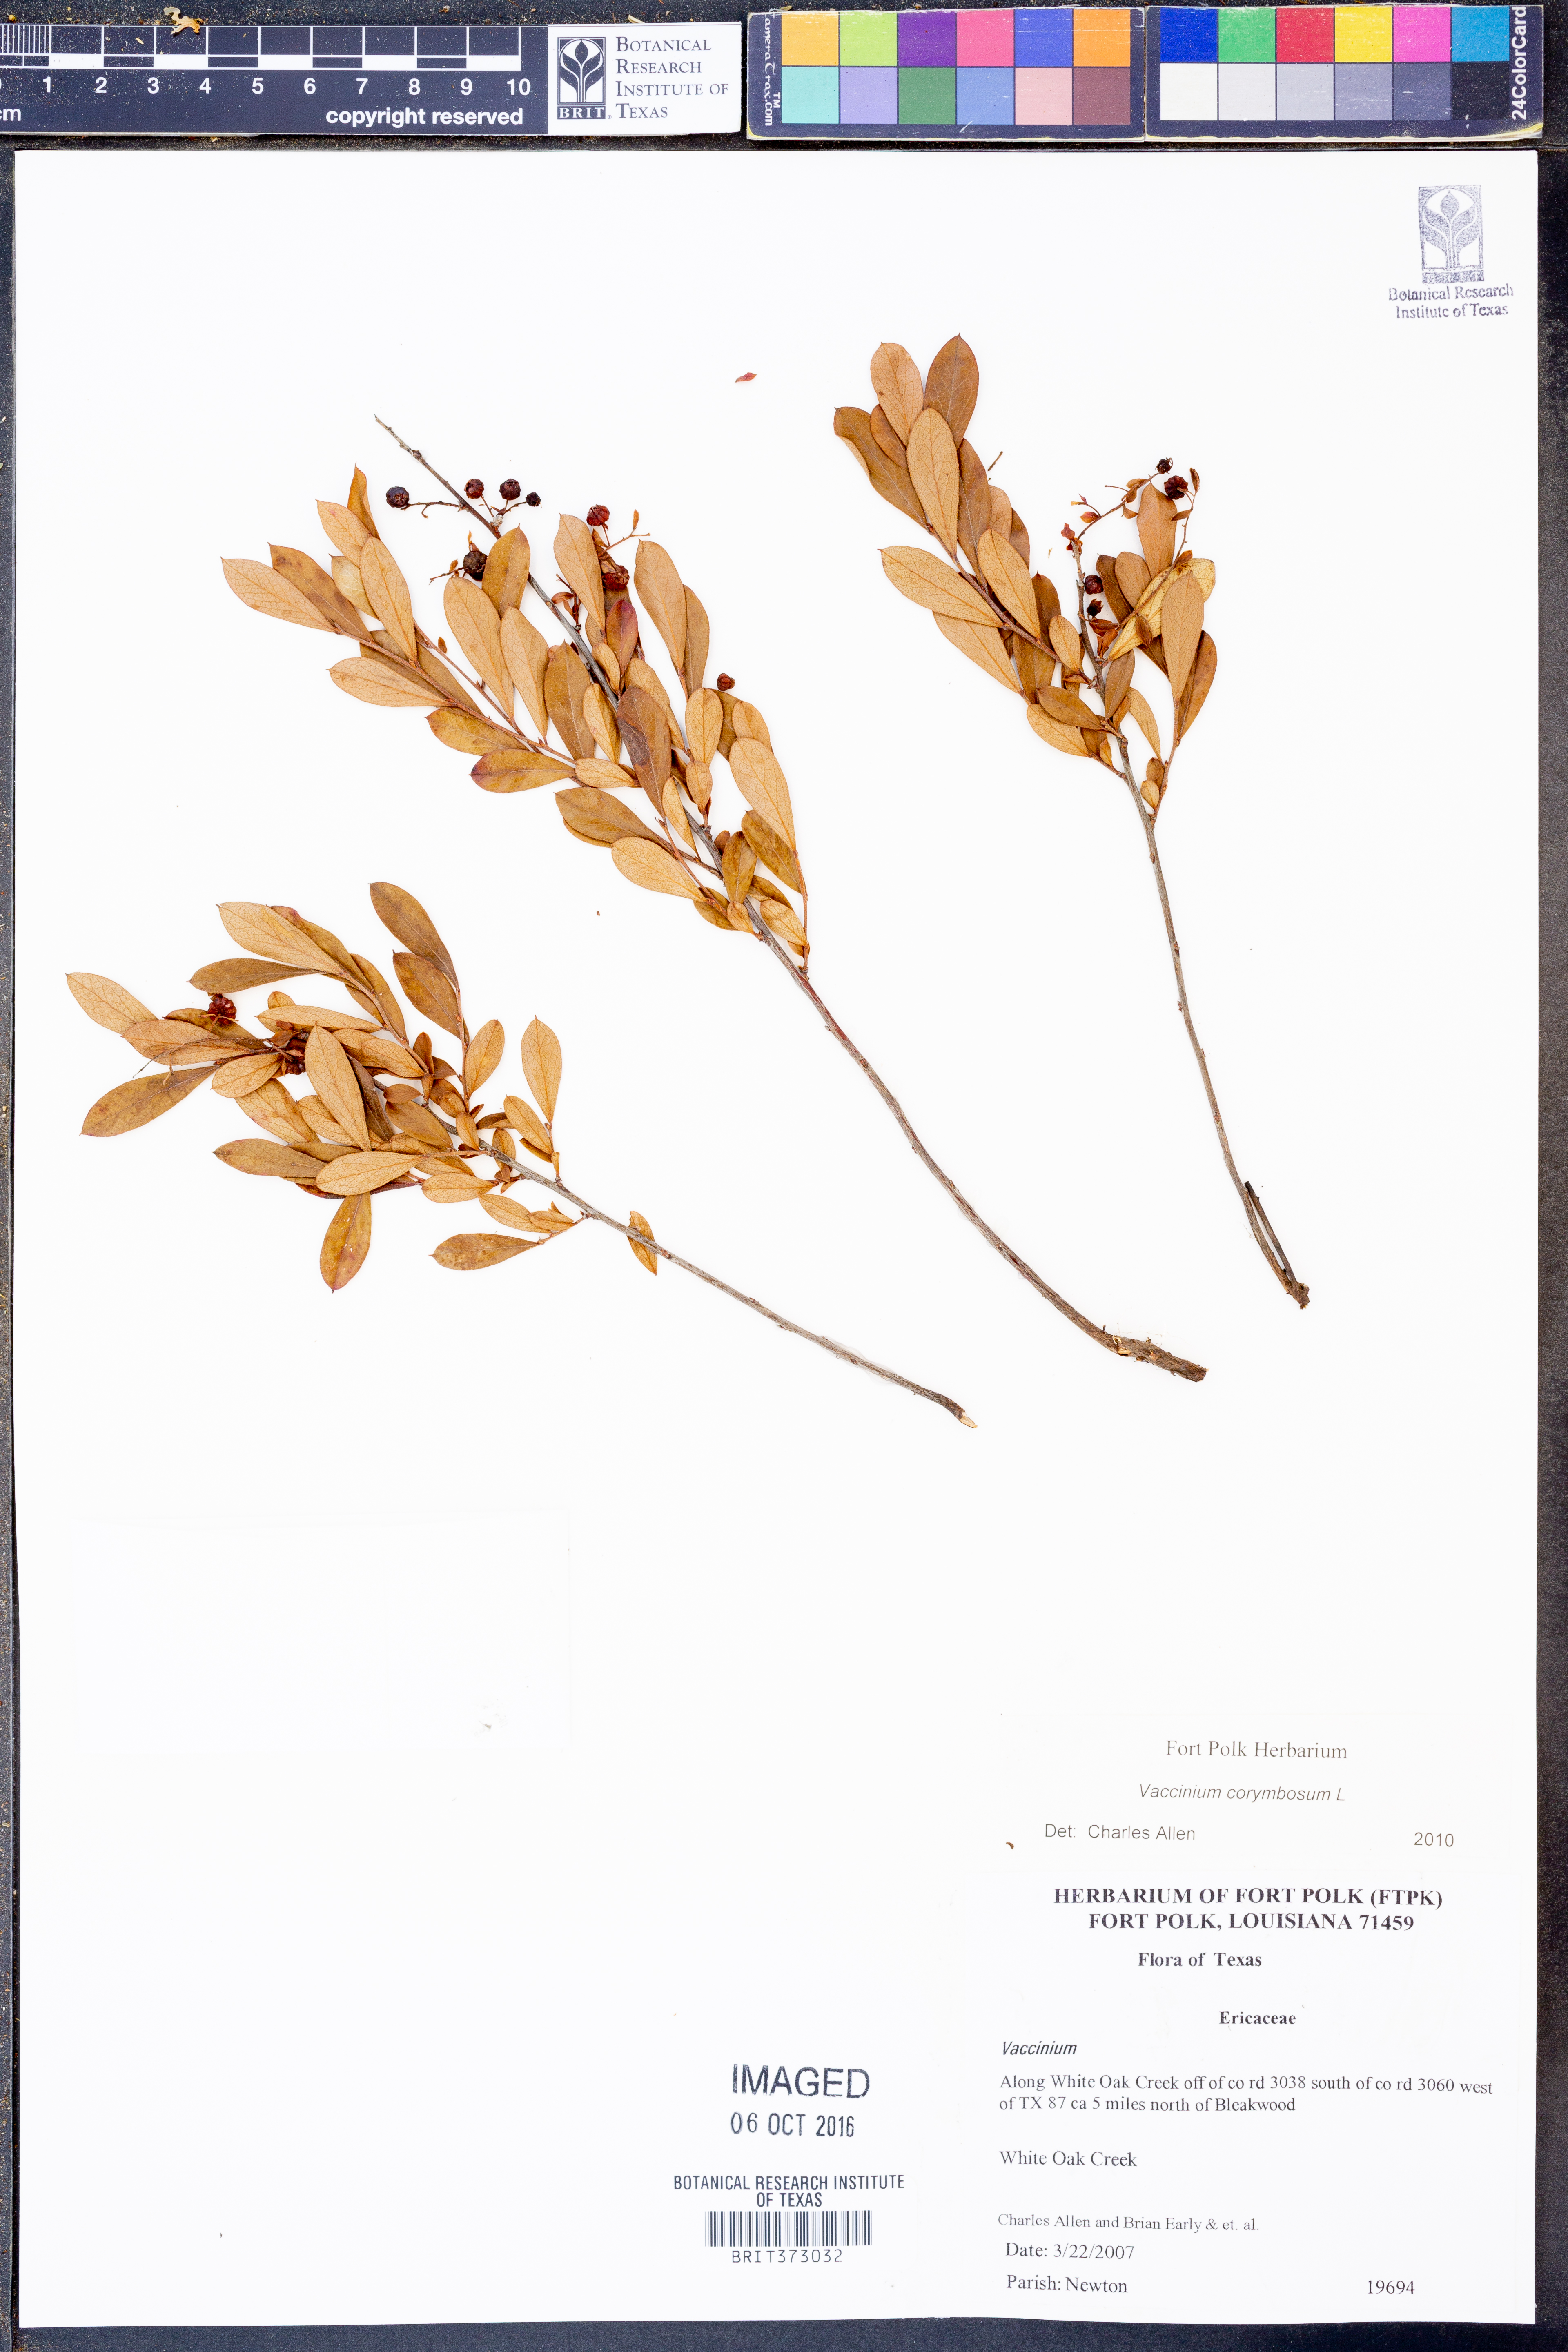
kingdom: Plantae
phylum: Tracheophyta
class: Magnoliopsida
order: Ericales
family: Ericaceae
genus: Vaccinium
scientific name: Vaccinium corymbosum
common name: Blueberry
